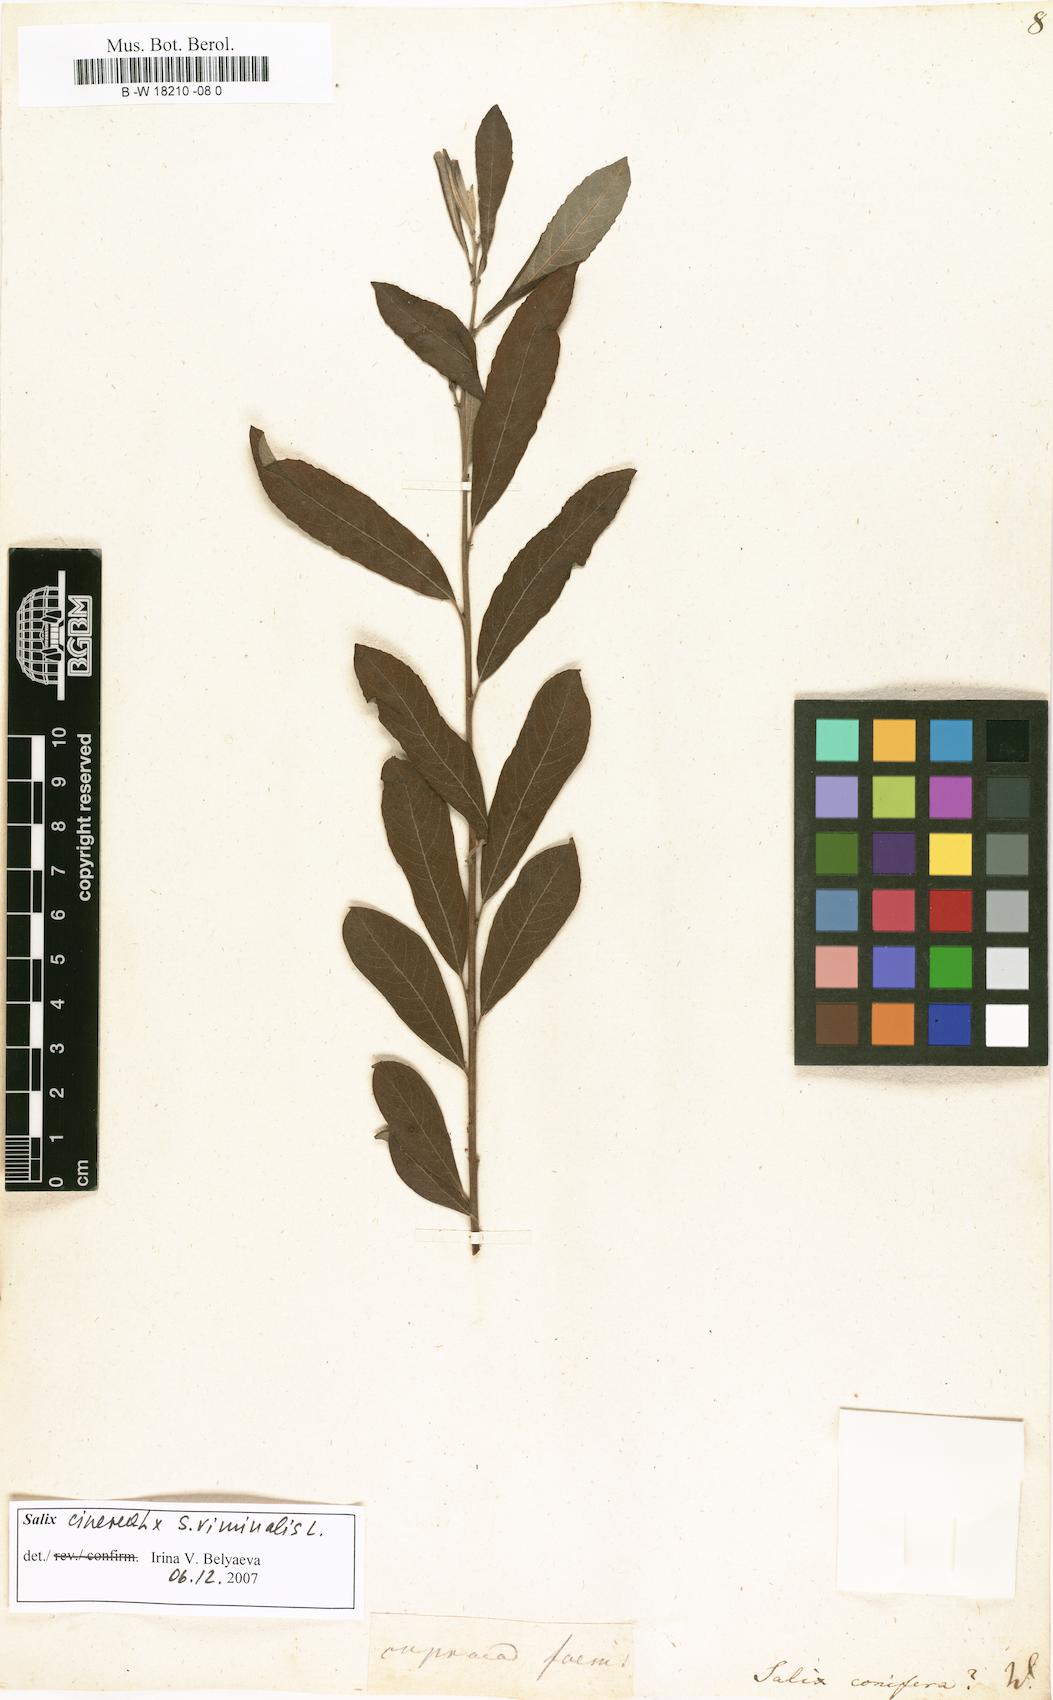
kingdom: Plantae
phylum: Tracheophyta
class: Magnoliopsida
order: Malpighiales
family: Salicaceae
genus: Salix
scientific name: Salix conifera
